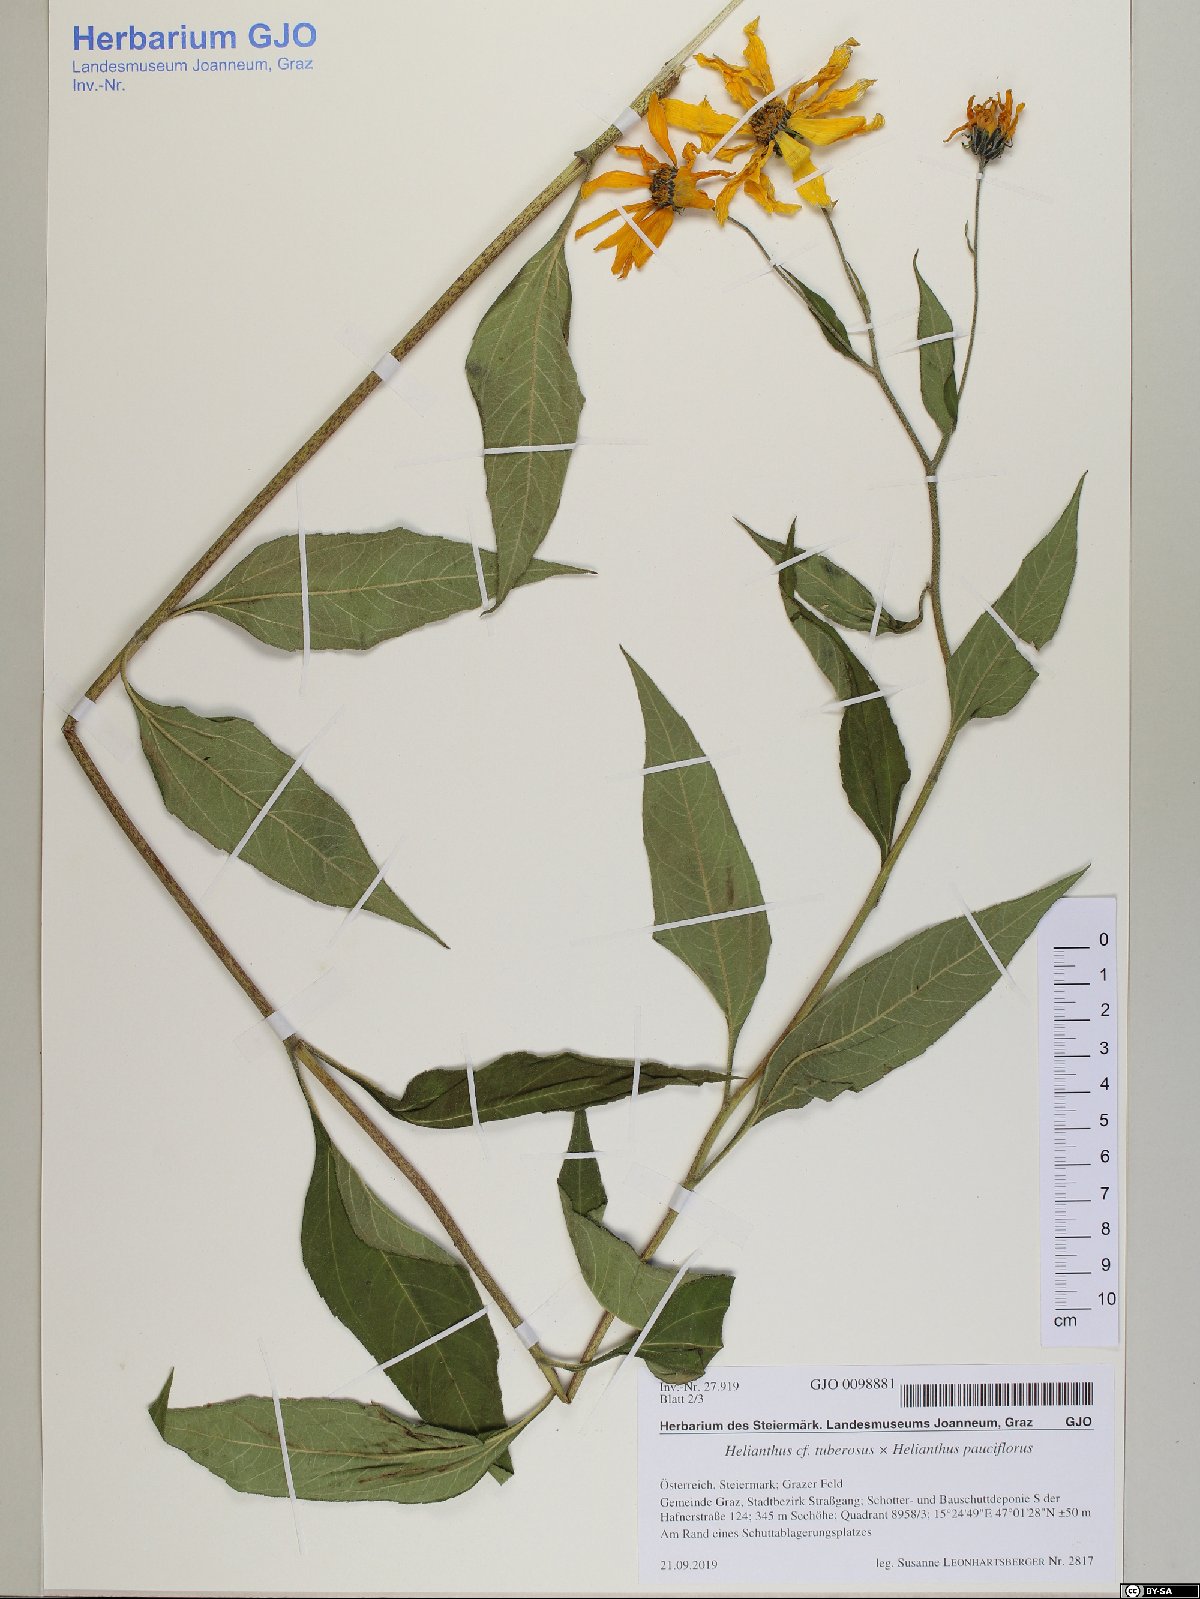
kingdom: Plantae
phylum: Tracheophyta
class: Magnoliopsida
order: Asterales
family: Asteraceae
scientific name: Asteraceae
